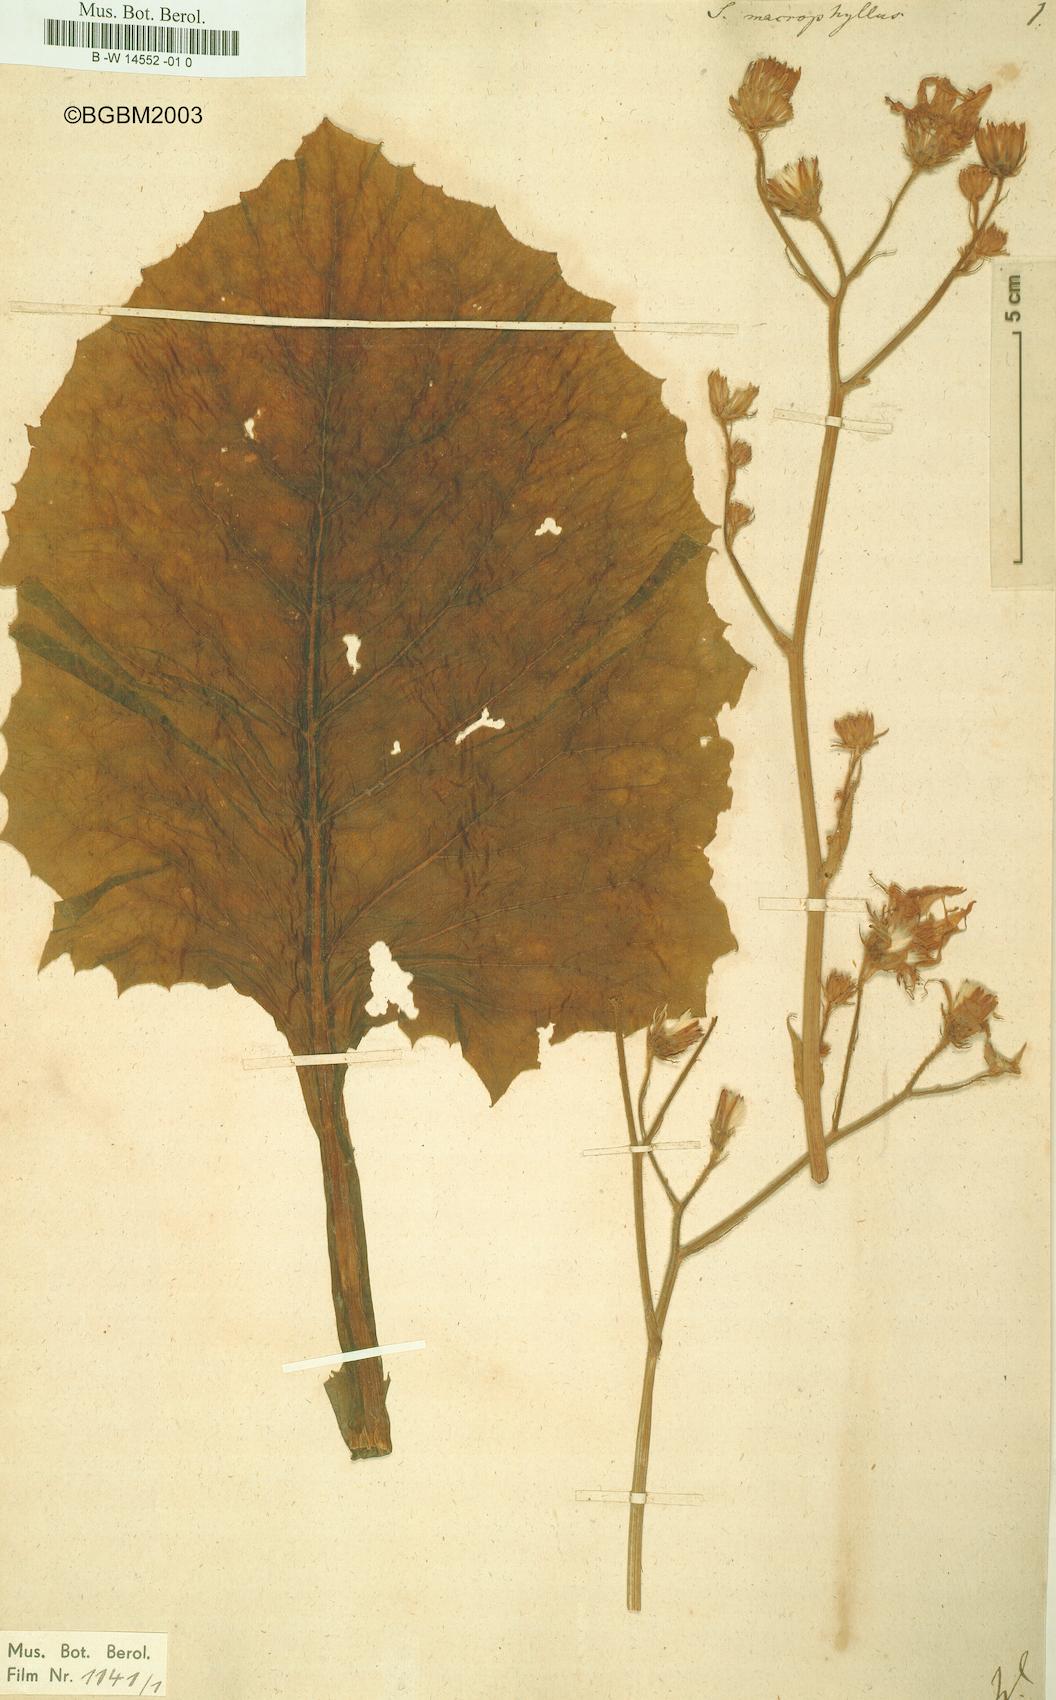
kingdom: Plantae
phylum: Tracheophyta
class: Magnoliopsida
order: Asterales
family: Asteraceae
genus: Lactuca
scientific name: Lactuca macrophylla
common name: Common blue-sow-thistle
